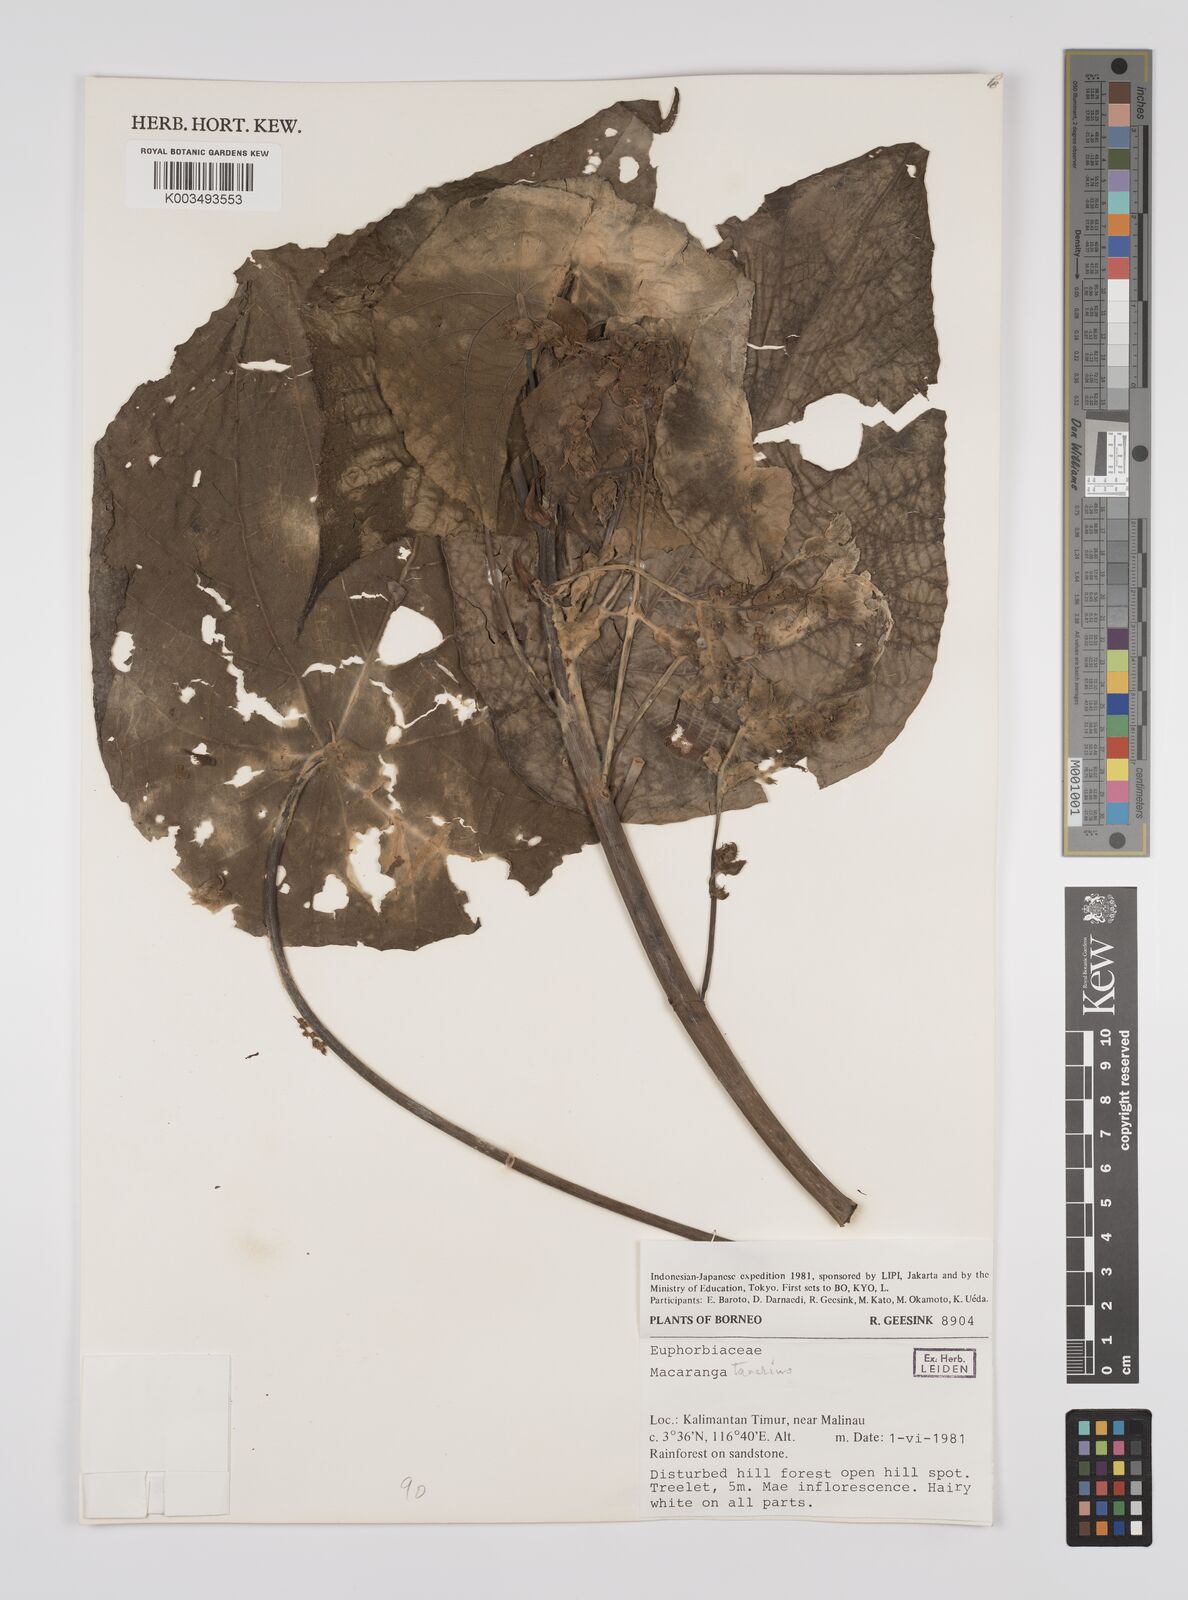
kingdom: Plantae
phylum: Tracheophyta
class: Magnoliopsida
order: Malpighiales
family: Euphorbiaceae
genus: Macaranga
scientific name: Macaranga tanarius
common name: Parasol leaf tree
